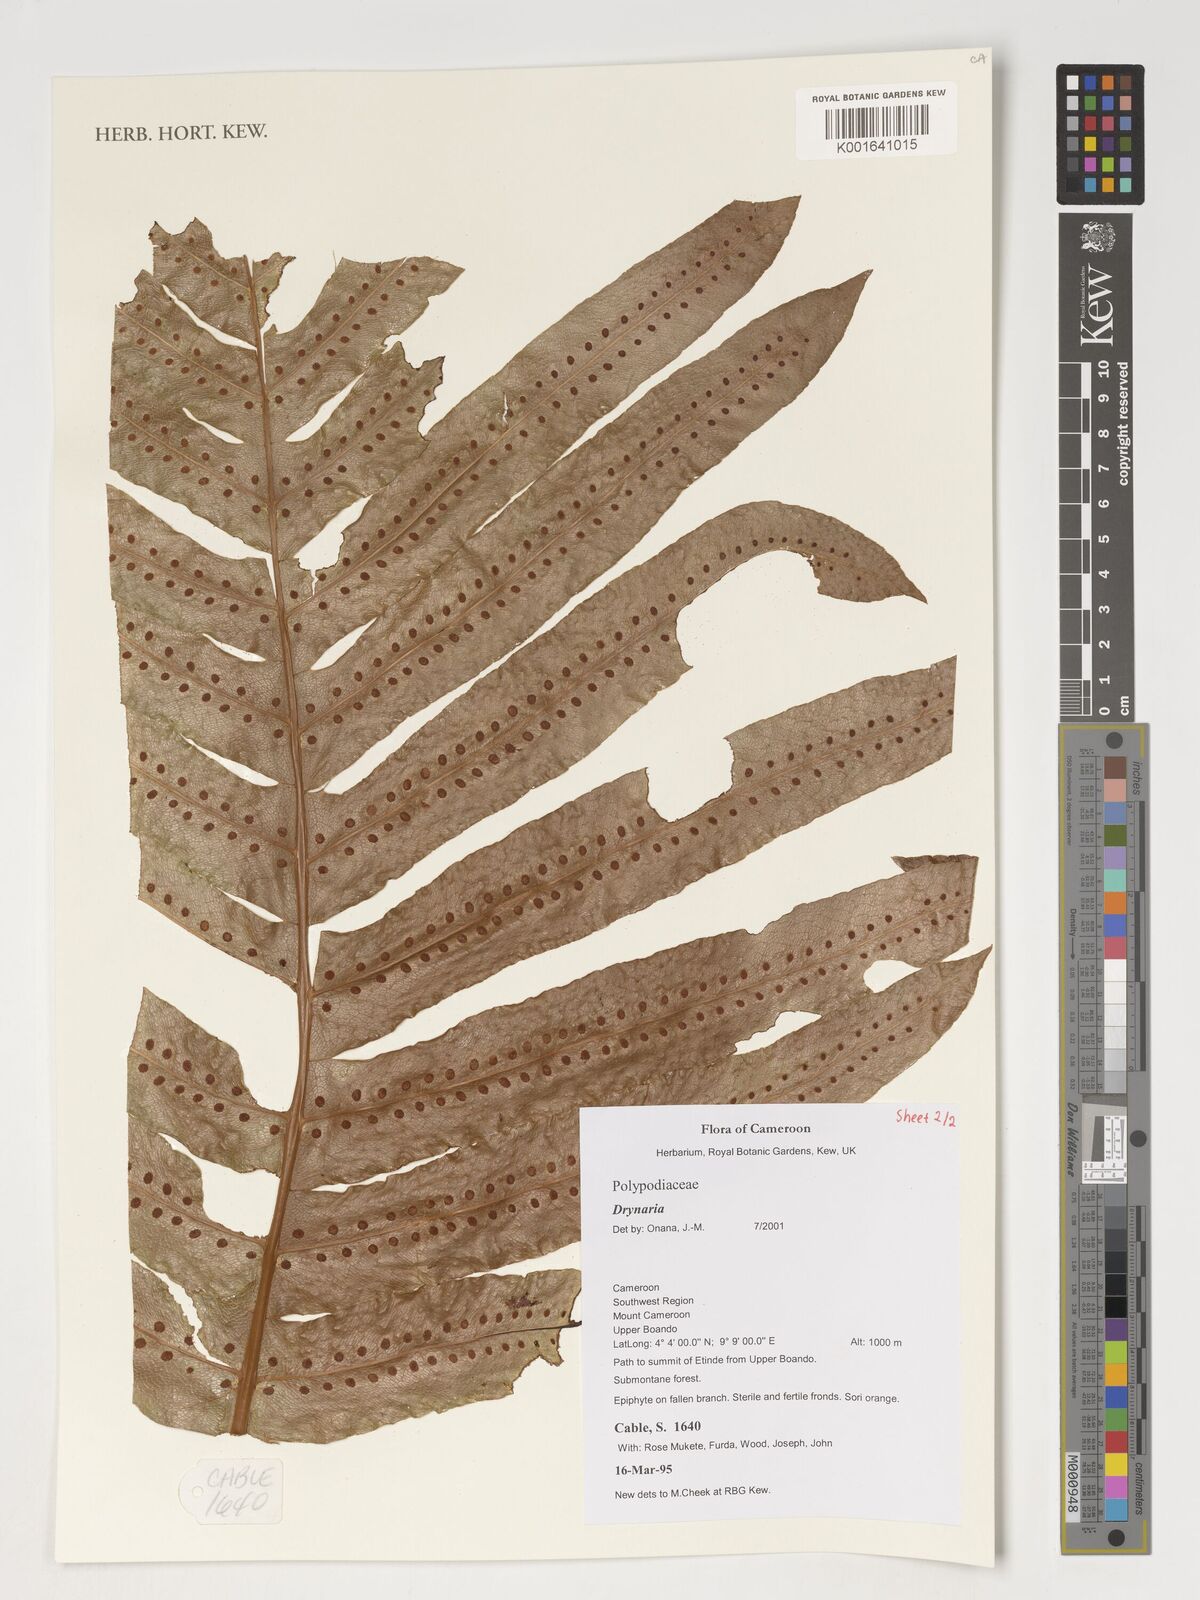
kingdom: Plantae
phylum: Tracheophyta
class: Polypodiopsida
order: Polypodiales
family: Polypodiaceae
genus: Drynaria
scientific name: Drynaria
